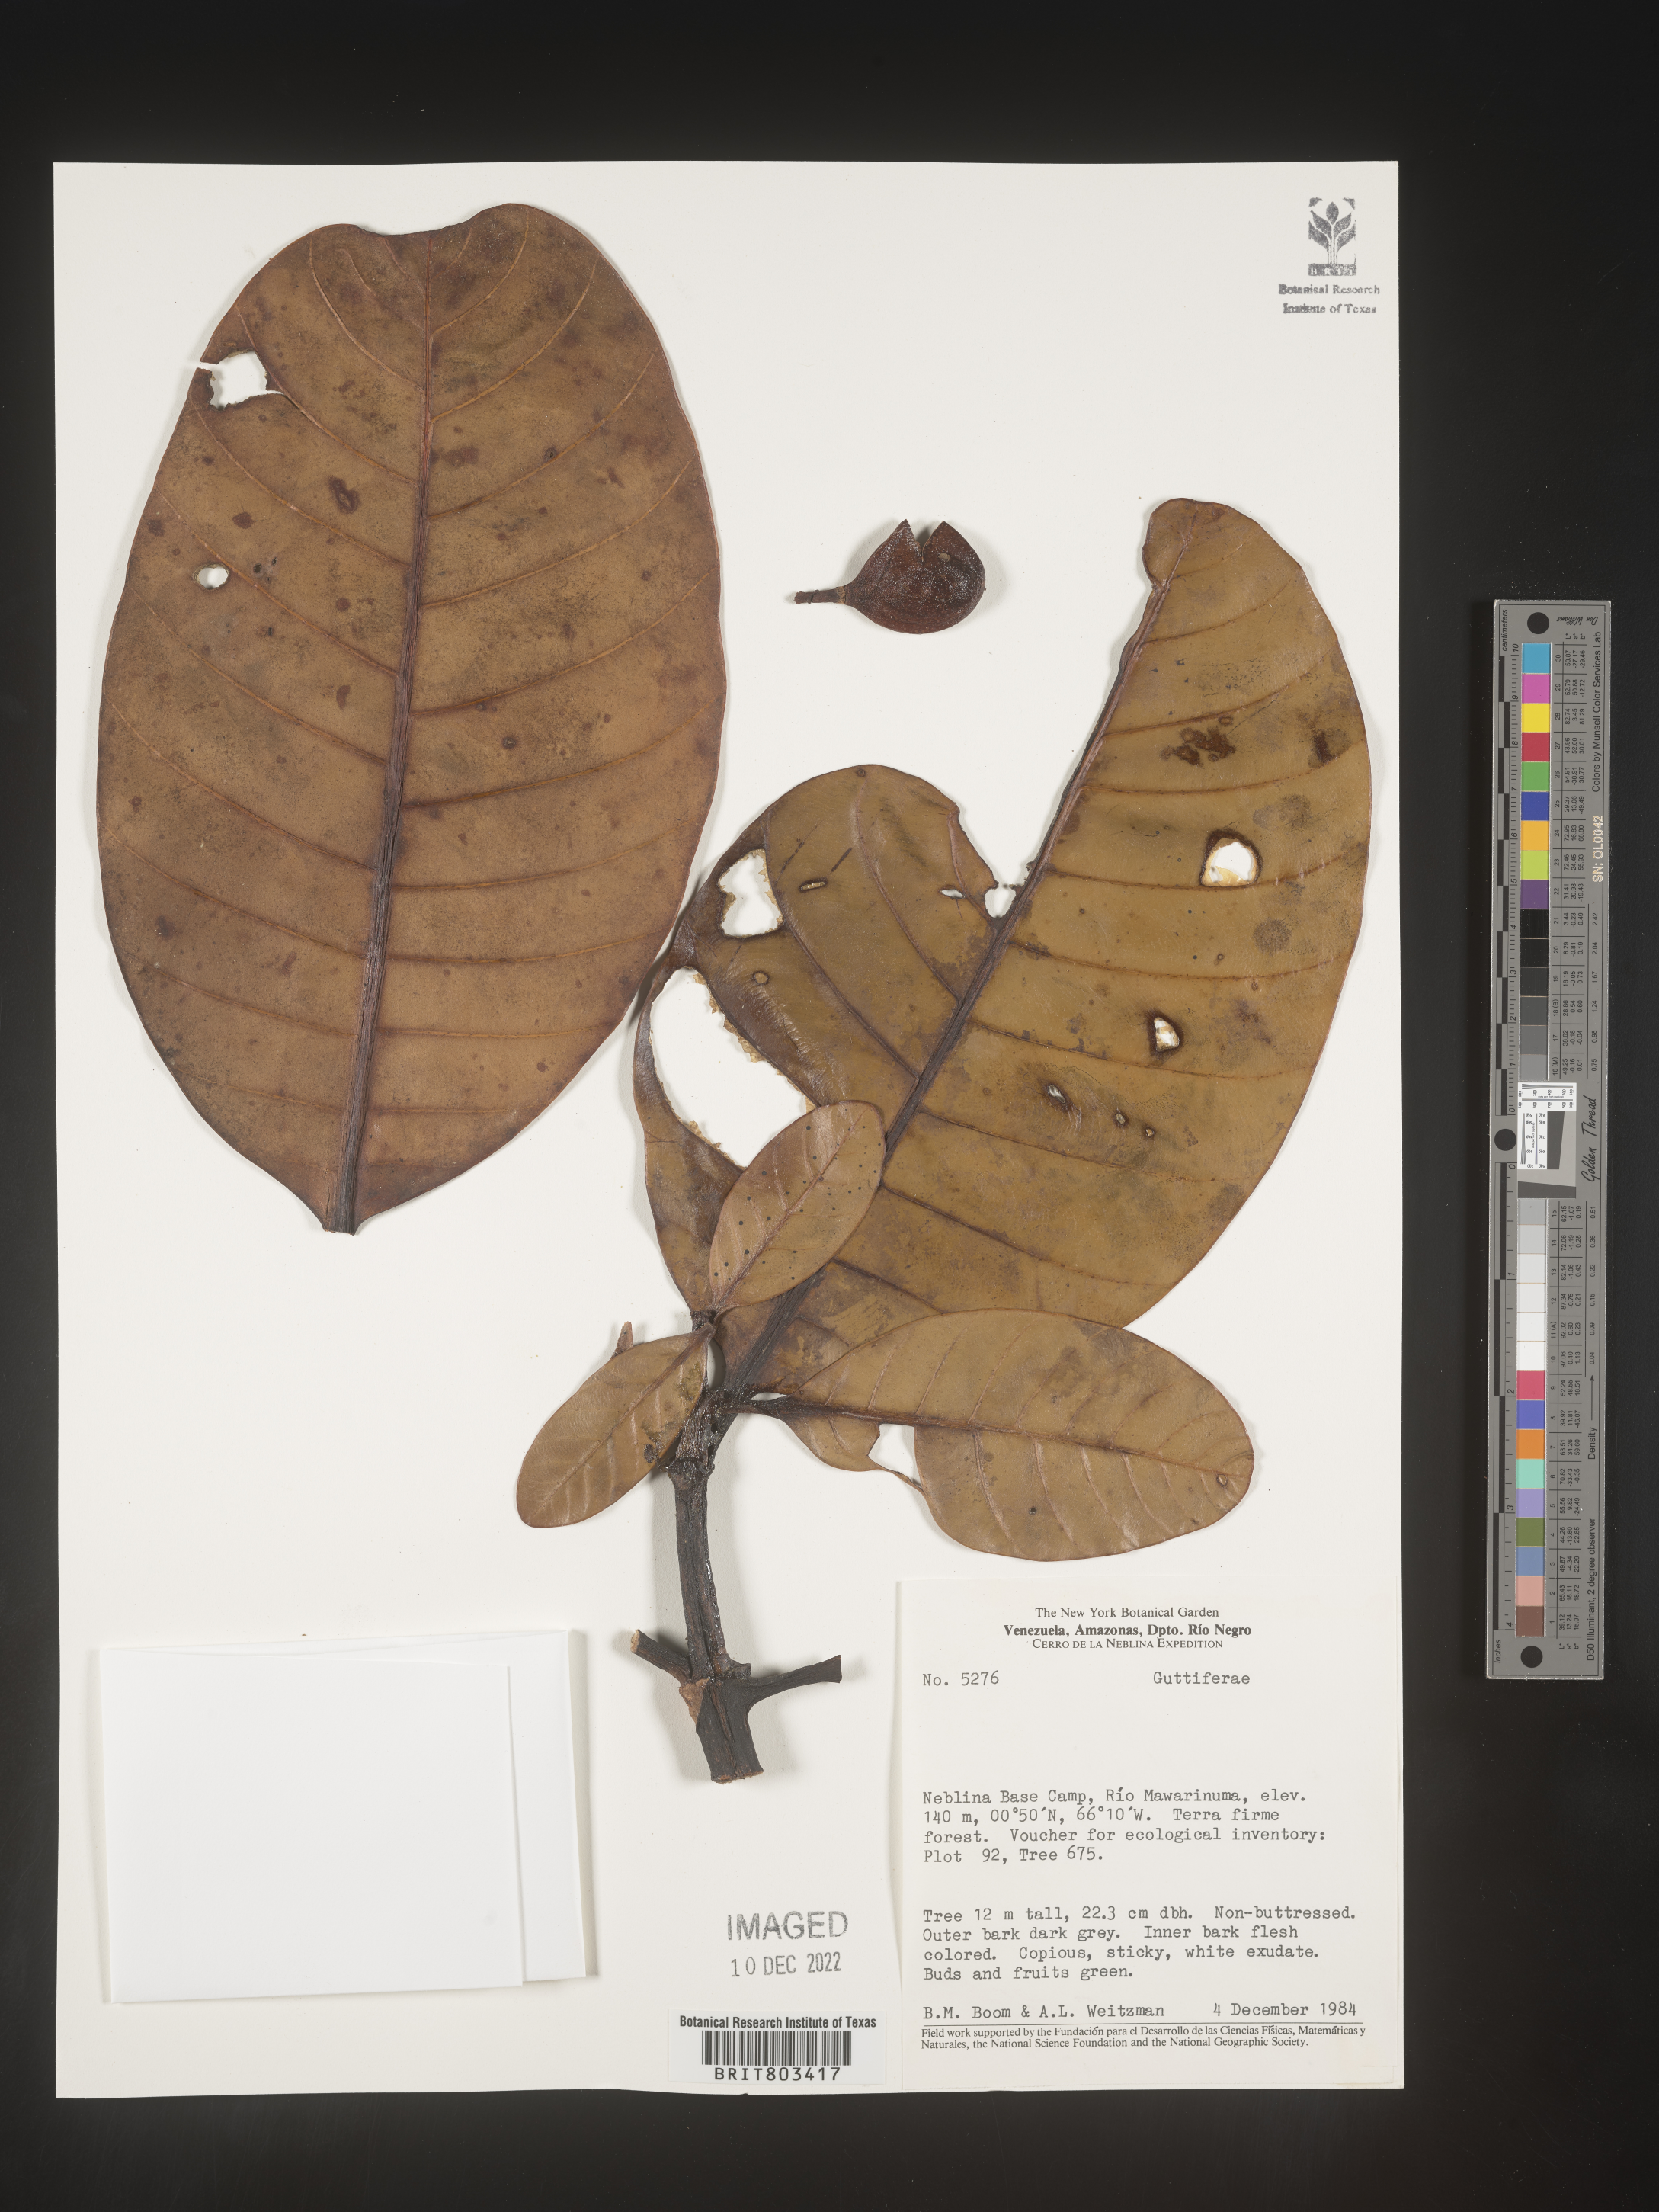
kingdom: Plantae
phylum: Tracheophyta
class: Magnoliopsida
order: Malpighiales
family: Clusiaceae
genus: Tovomita
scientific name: Tovomita
